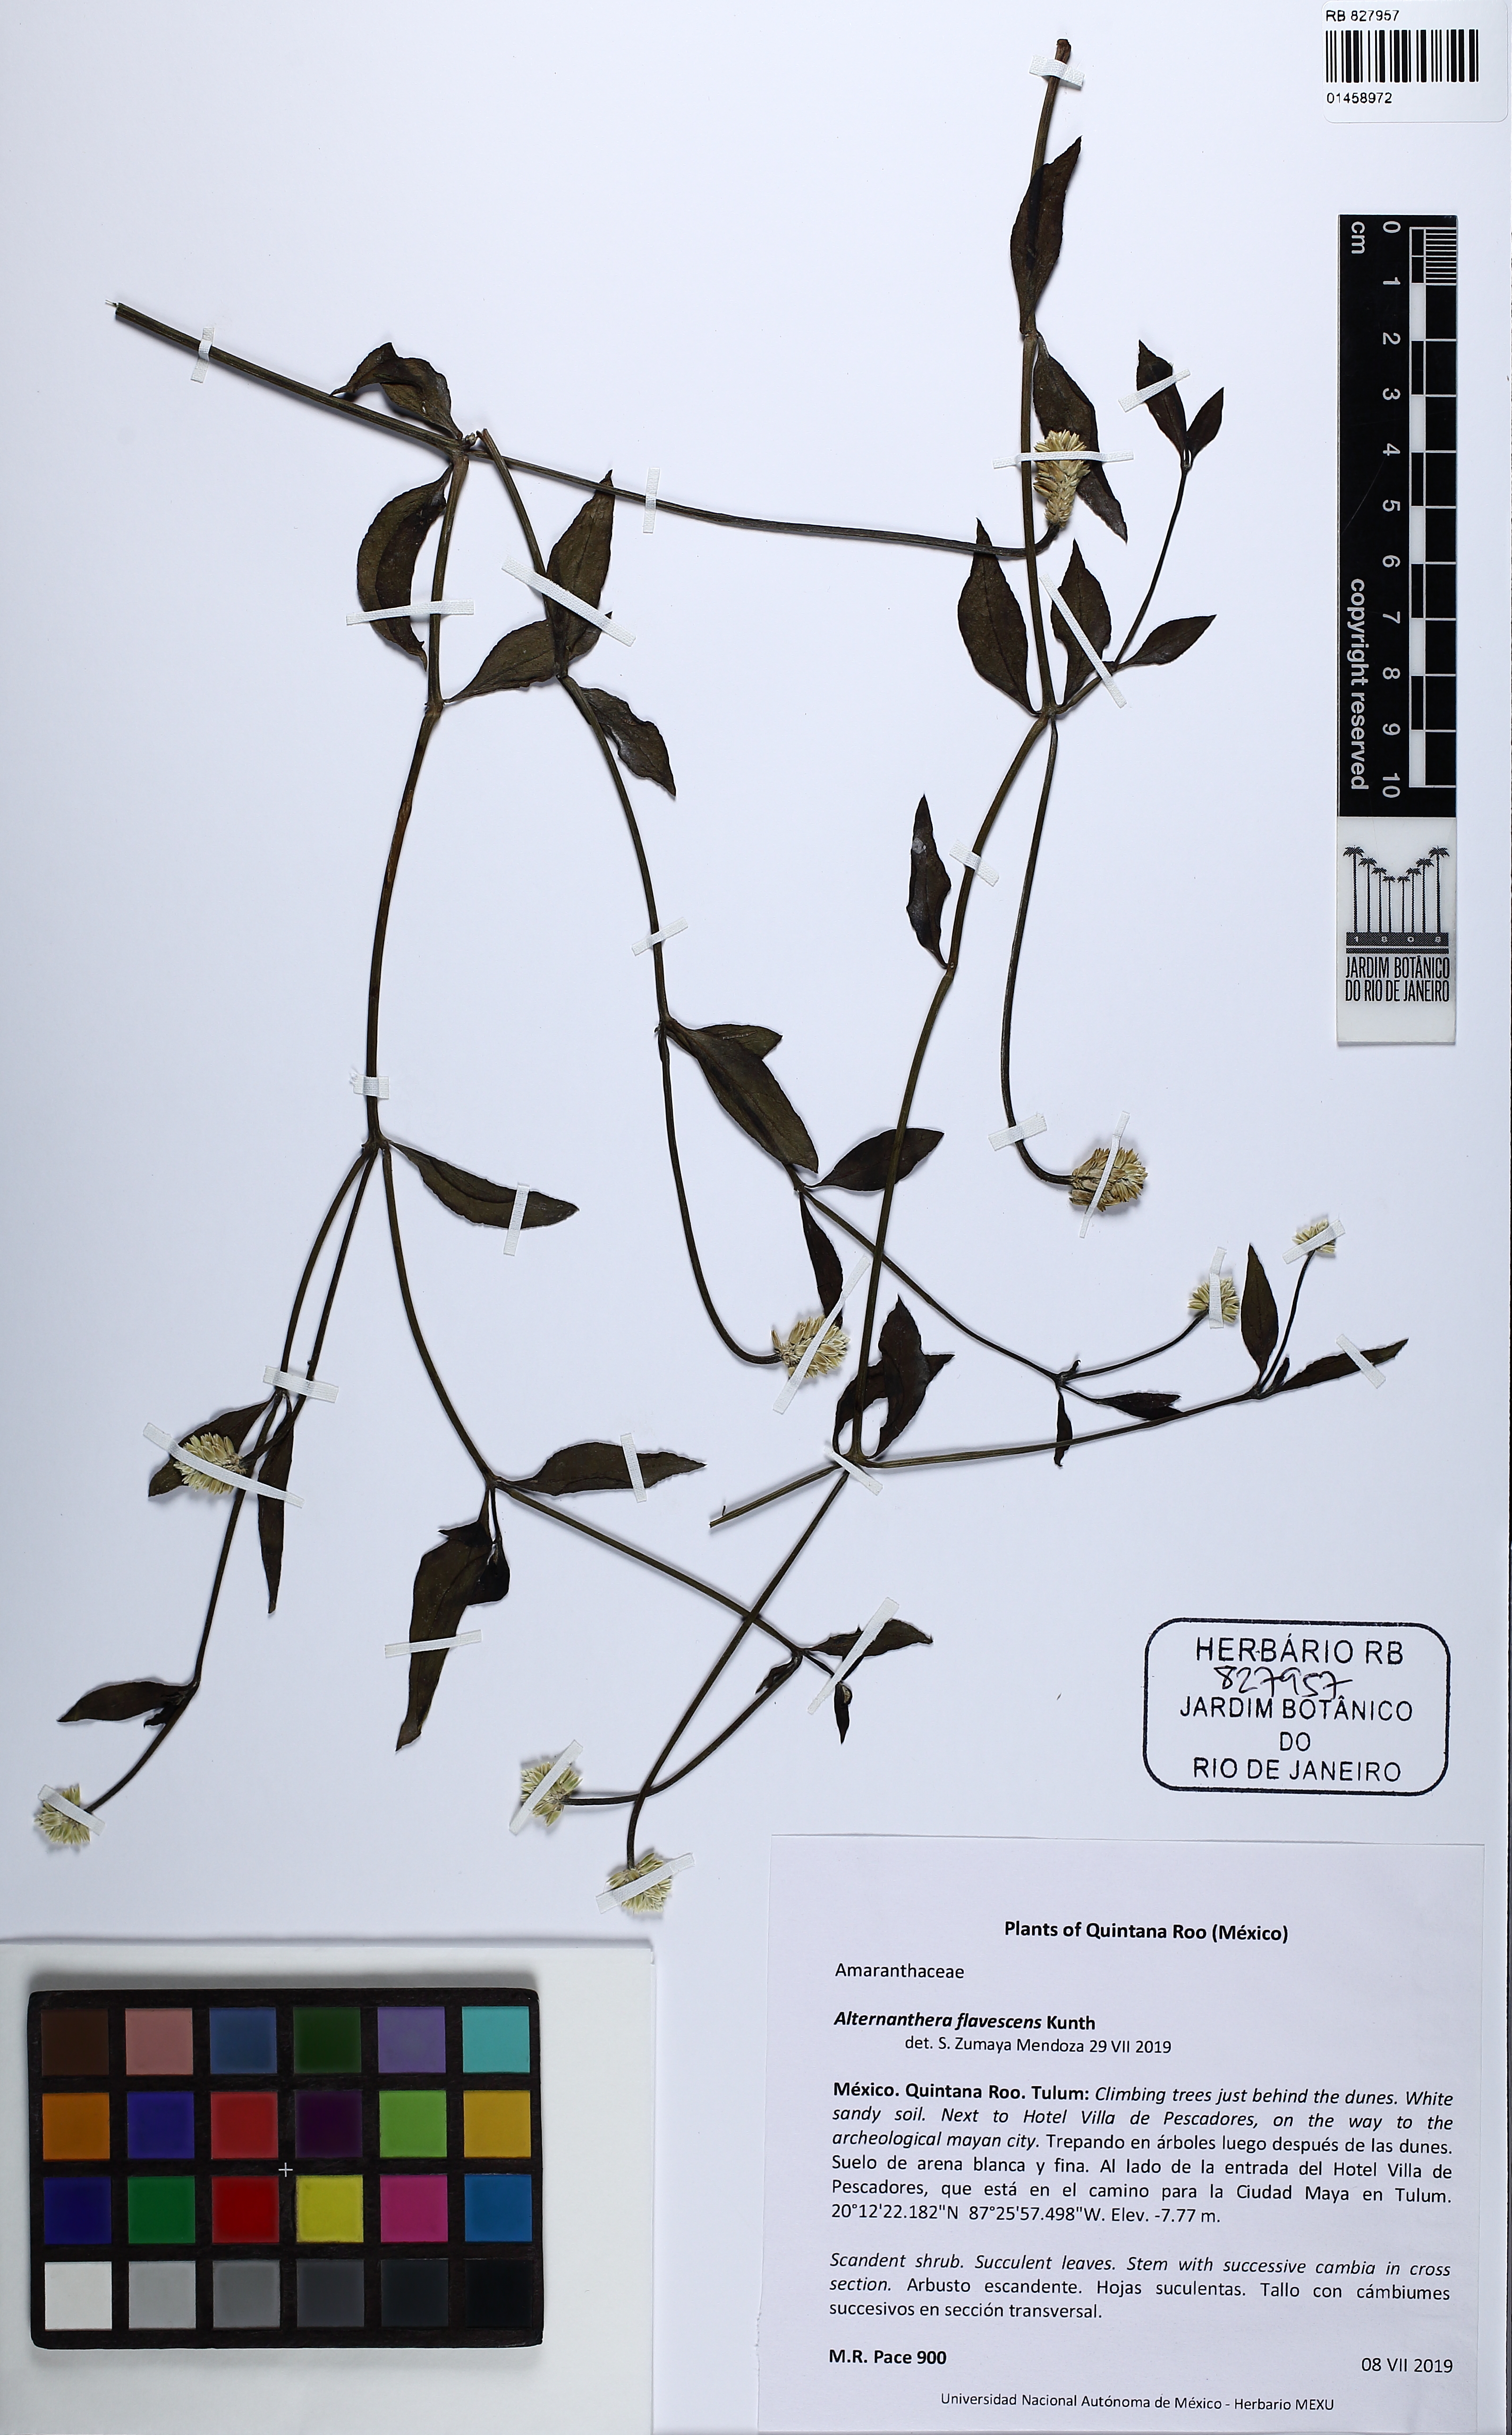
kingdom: Plantae
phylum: Tracheophyta
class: Magnoliopsida
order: Caryophyllales
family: Amaranthaceae
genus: Alternanthera
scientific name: Alternanthera flavescens
